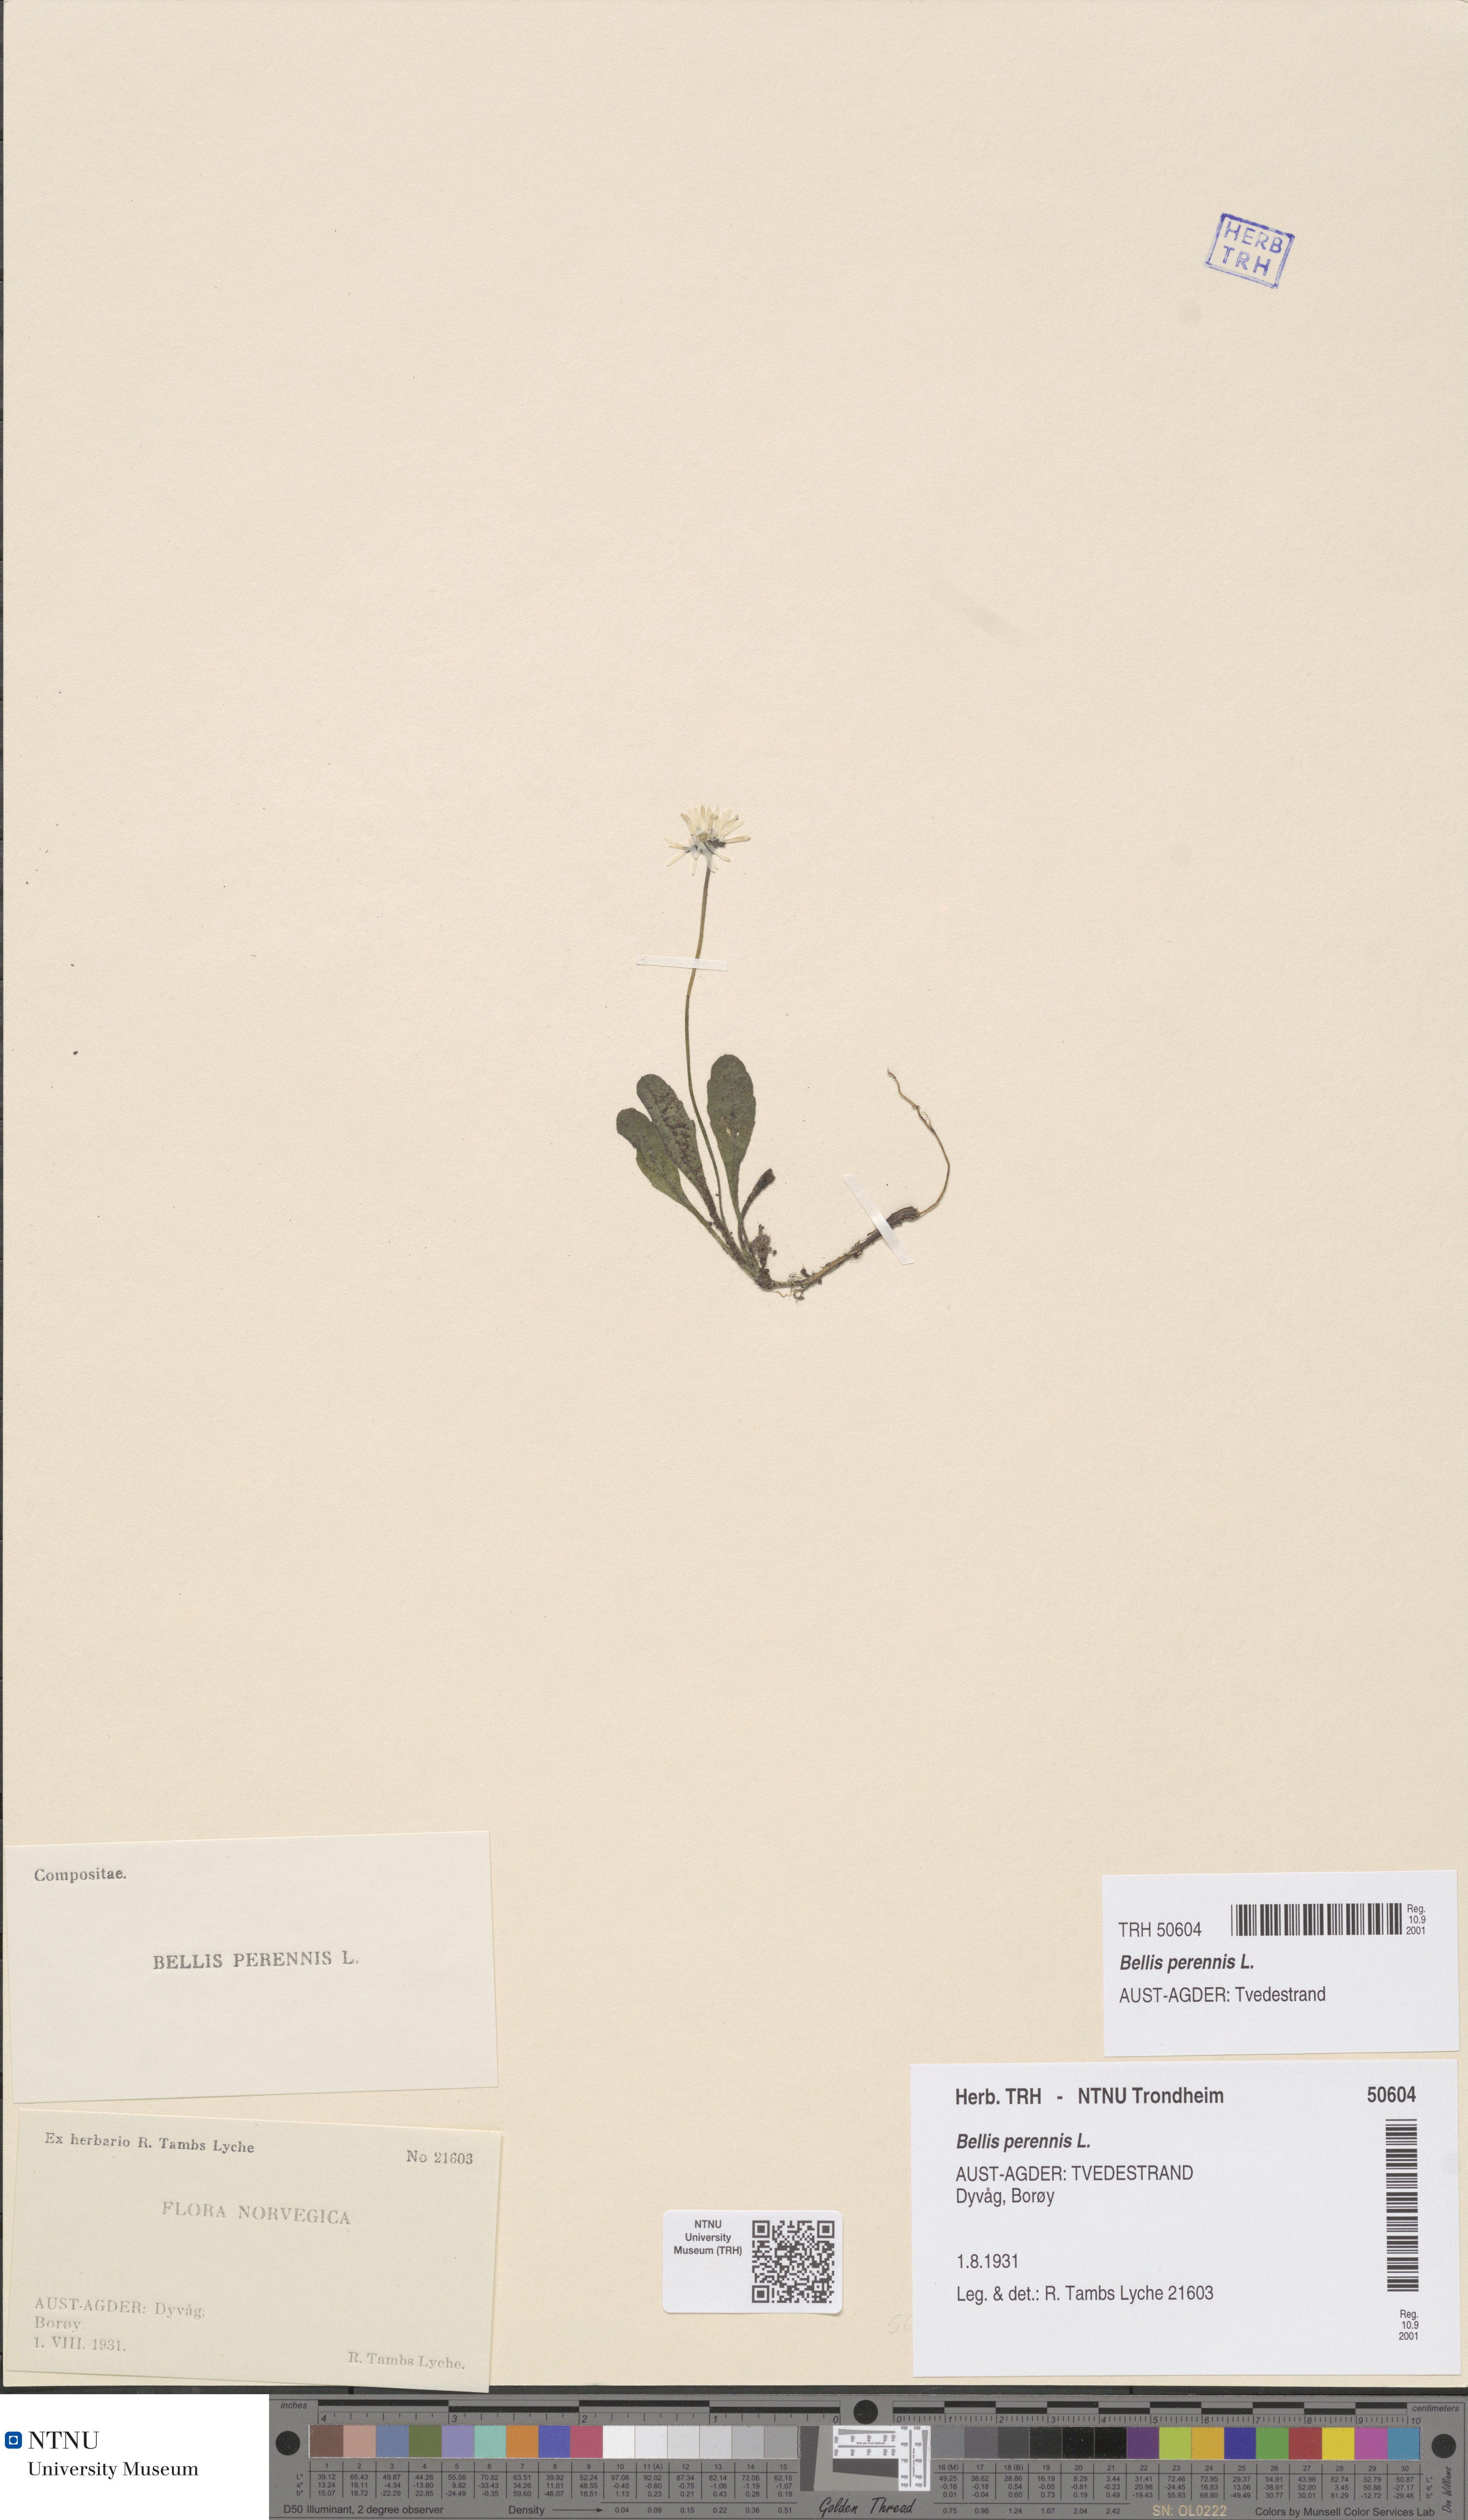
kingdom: Plantae
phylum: Tracheophyta
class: Magnoliopsida
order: Asterales
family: Asteraceae
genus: Bellis
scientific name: Bellis perennis
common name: Lawndaisy
